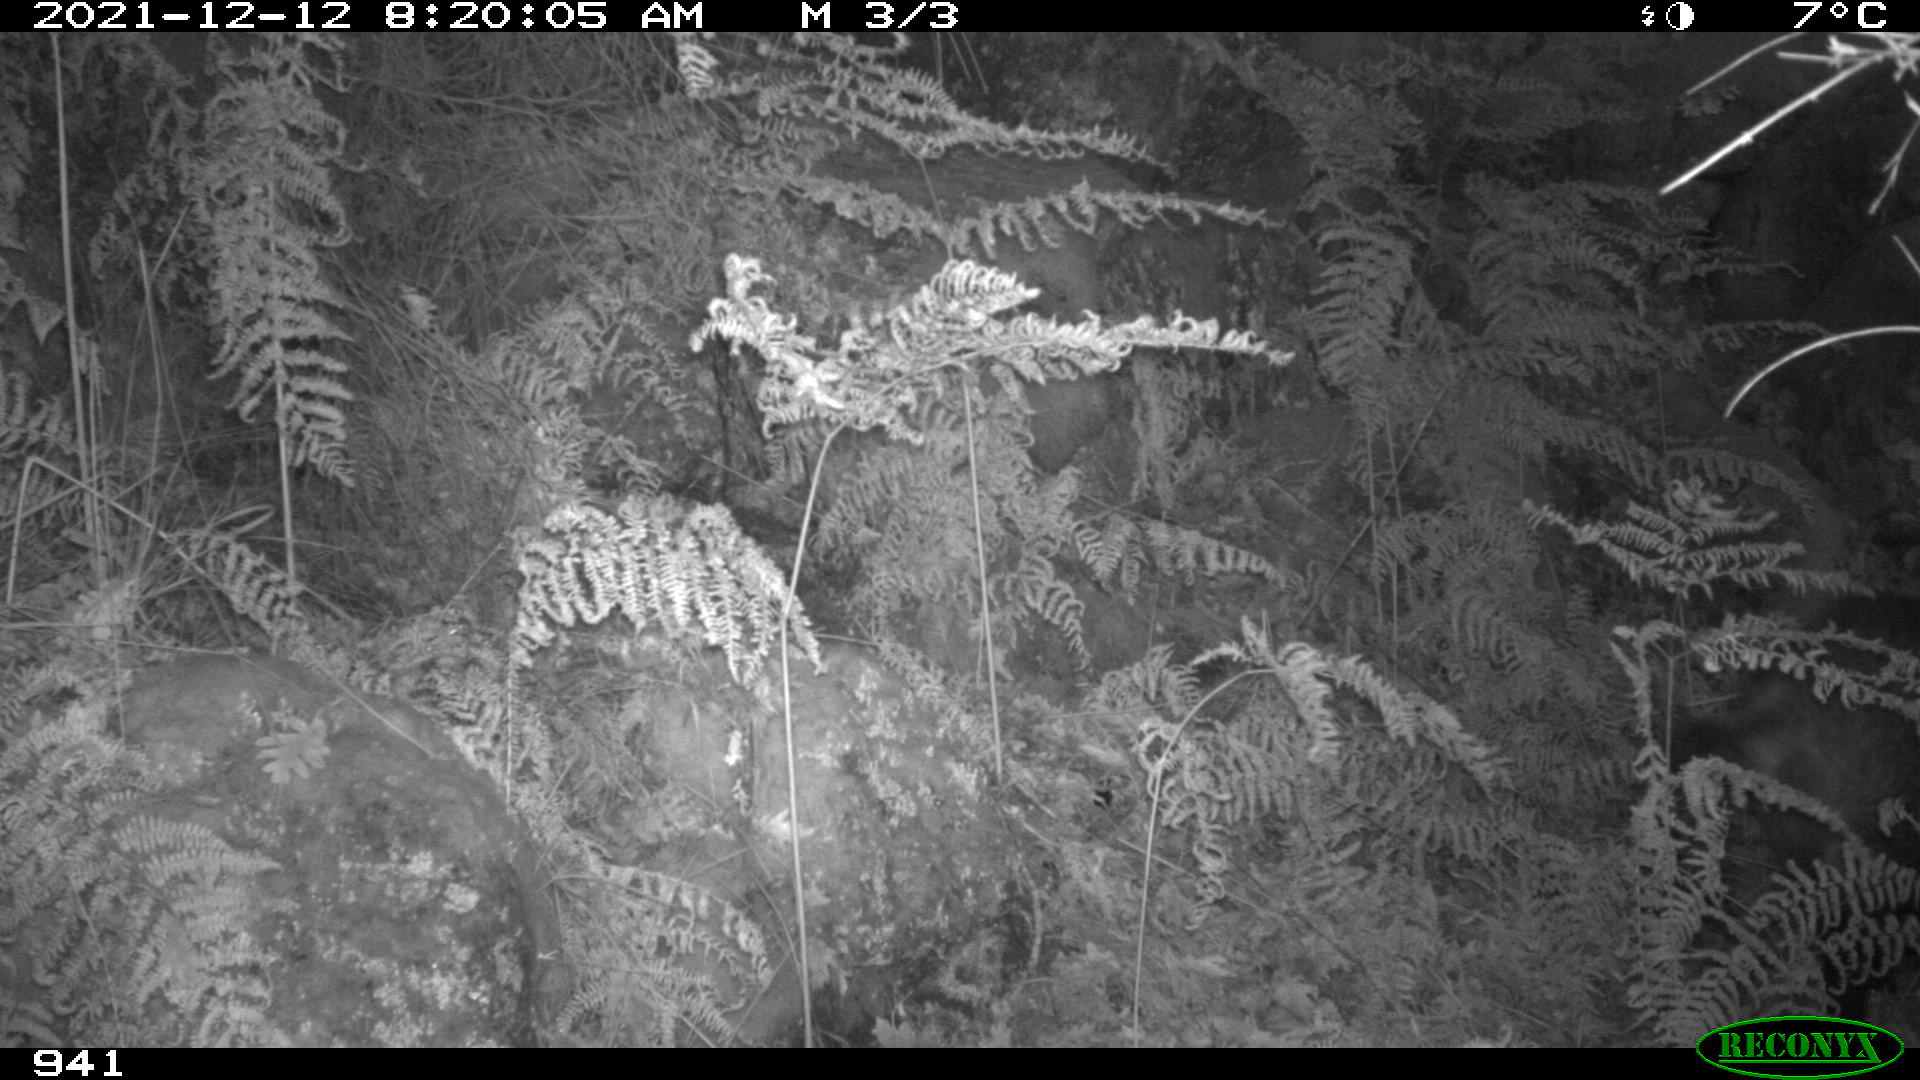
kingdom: Animalia
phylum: Chordata
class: Mammalia
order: Artiodactyla
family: Suidae
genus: Sus
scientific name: Sus scrofa
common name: Wild boar
